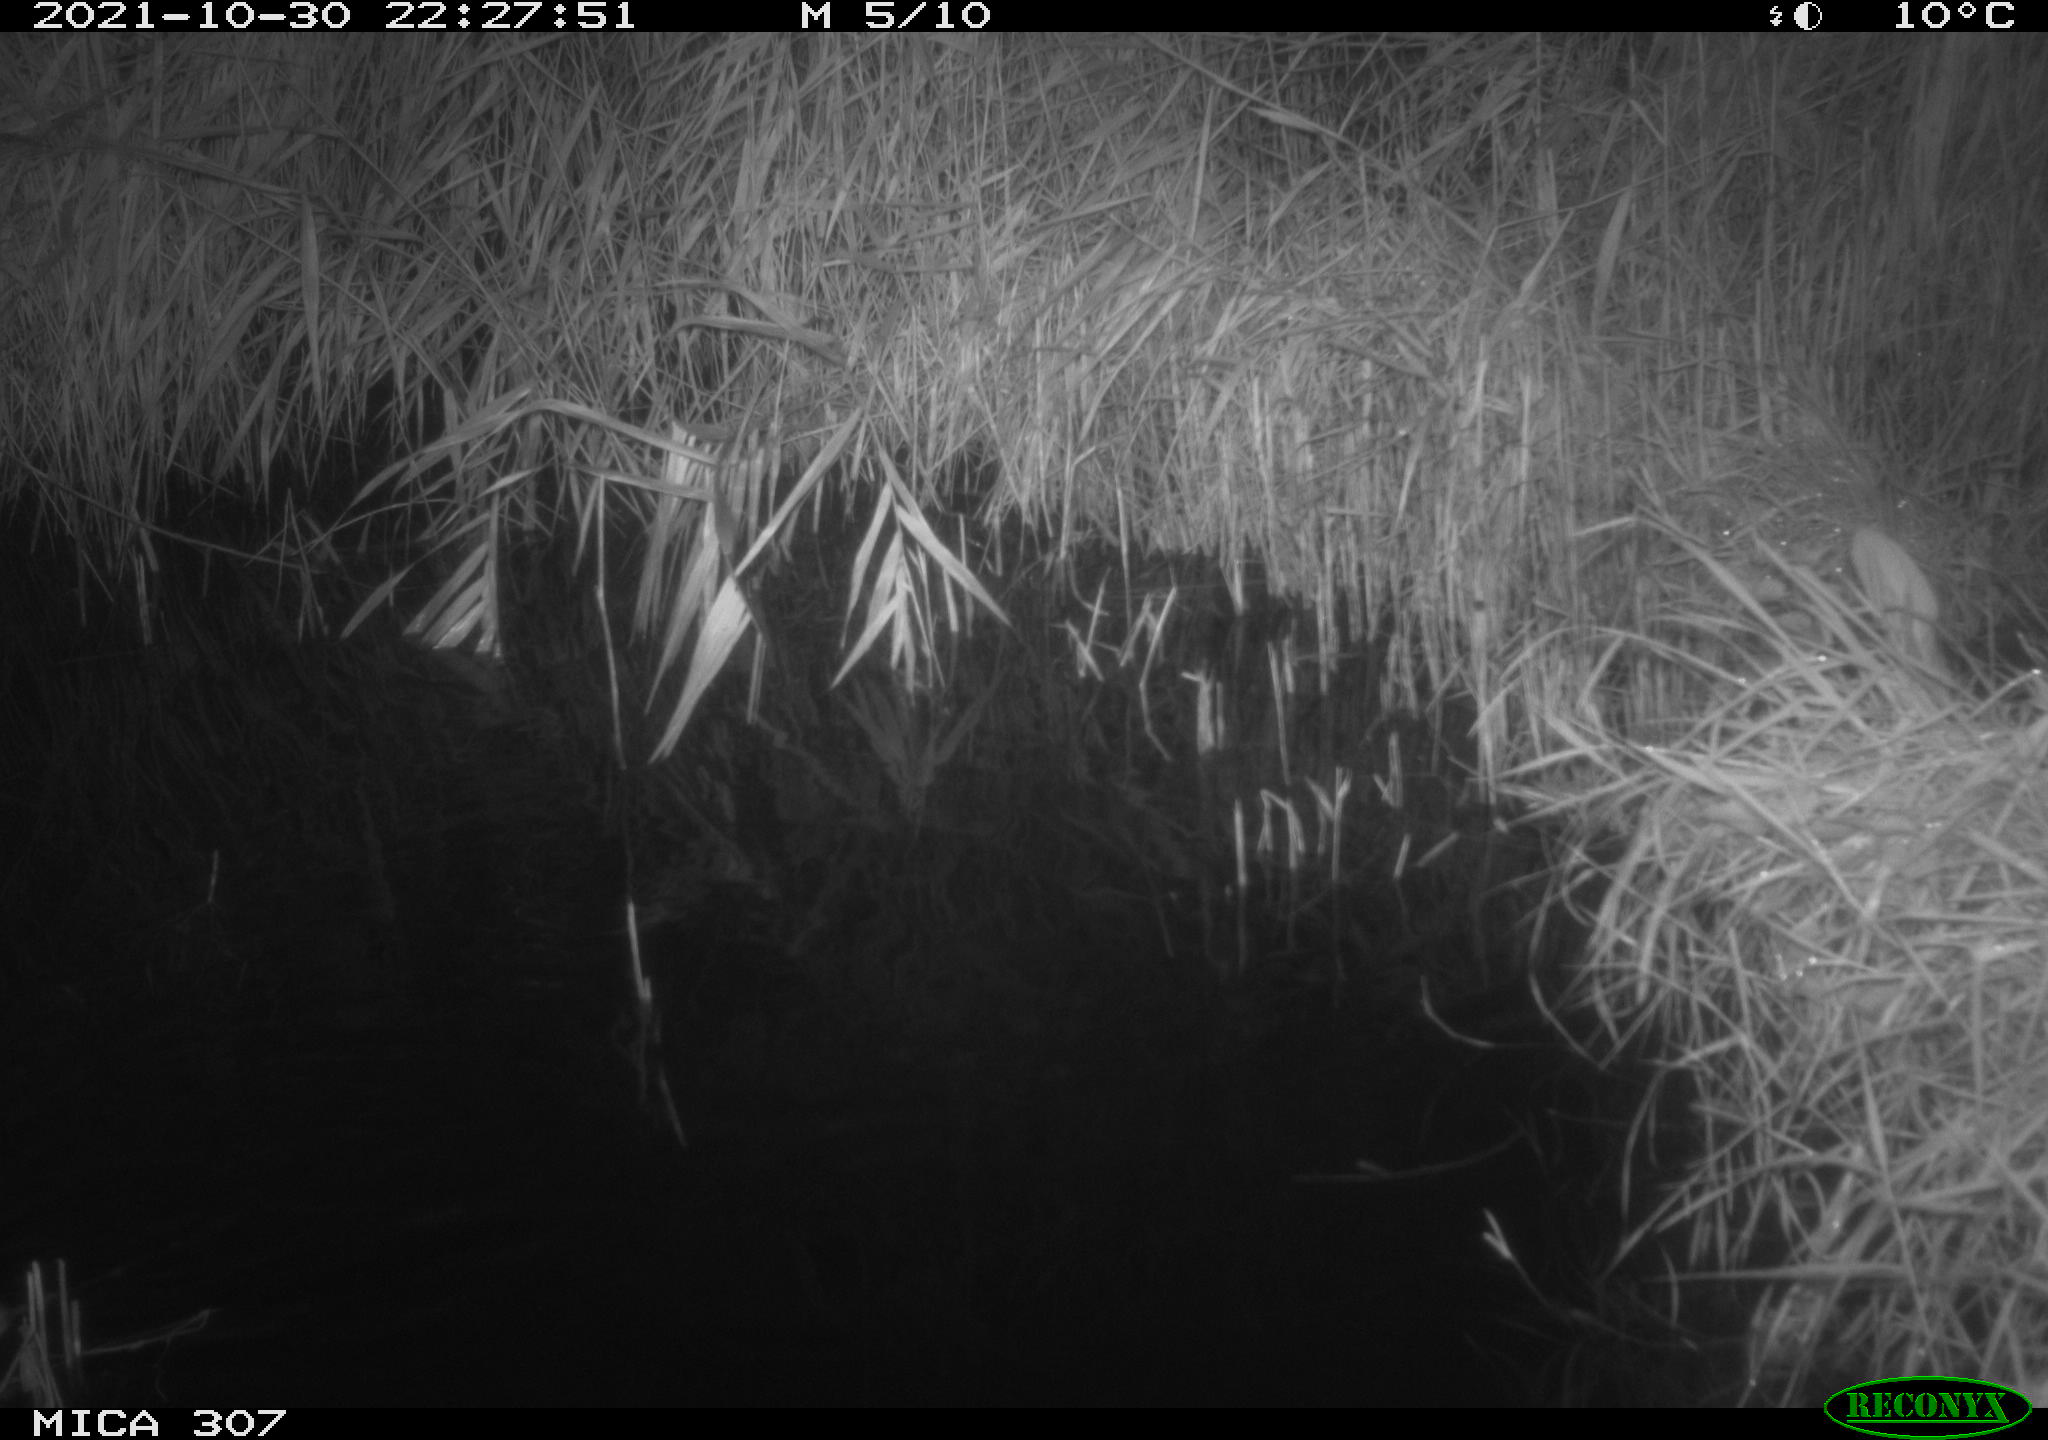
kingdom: Animalia
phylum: Chordata
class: Mammalia
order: Rodentia
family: Muridae
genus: Rattus
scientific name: Rattus norvegicus
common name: Brown rat
